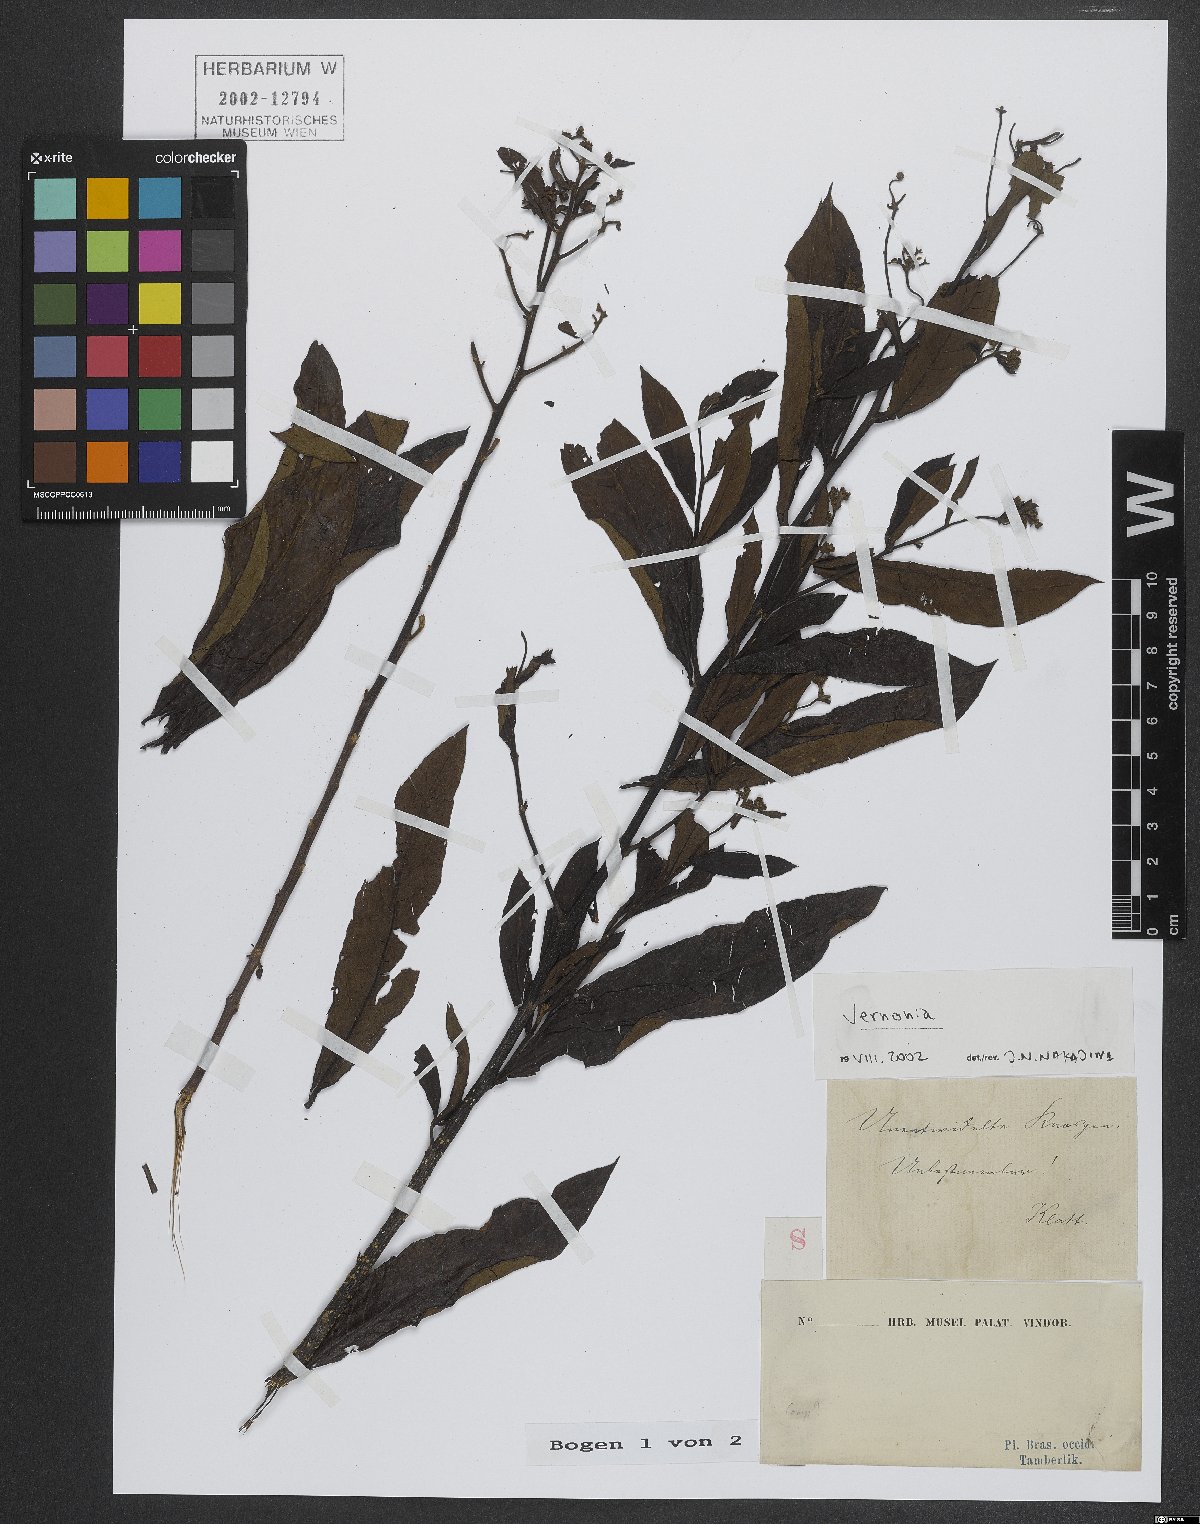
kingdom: Plantae
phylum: Tracheophyta
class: Magnoliopsida
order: Asterales
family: Asteraceae
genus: Vernonia
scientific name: Vernonia
